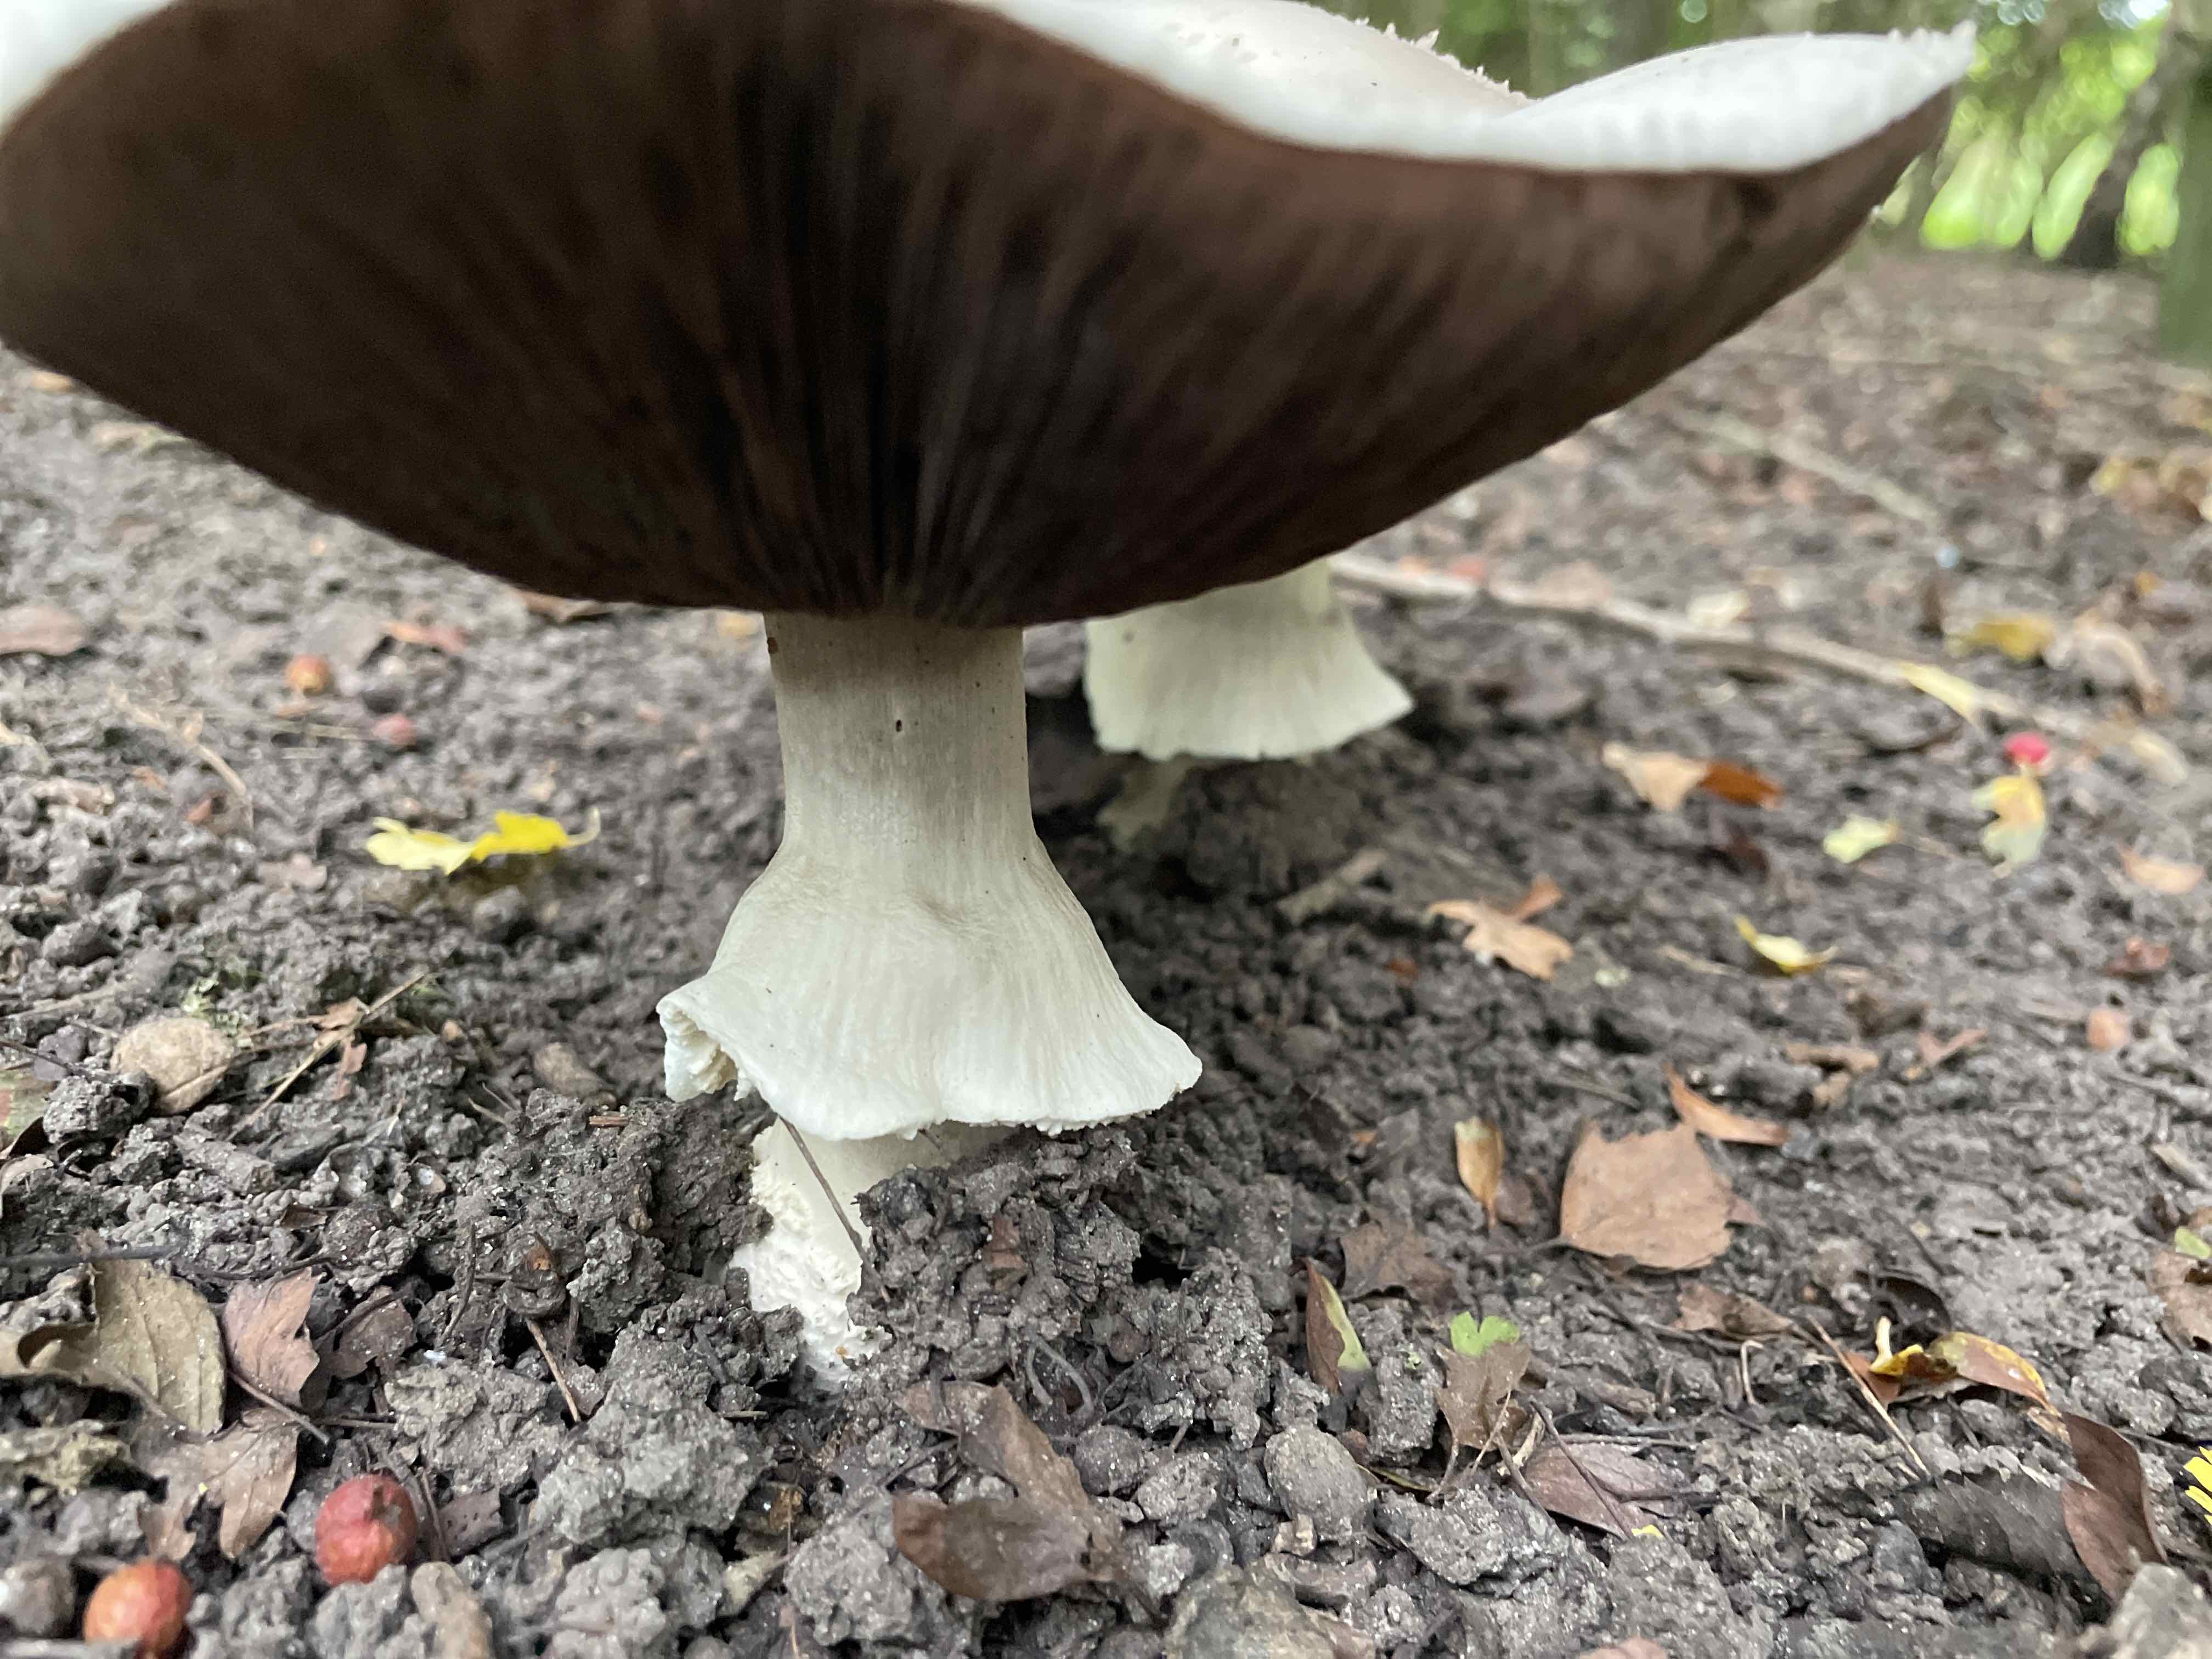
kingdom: Fungi
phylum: Basidiomycota
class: Agaricomycetes
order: Agaricales
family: Agaricaceae
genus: Agaricus
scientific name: Agaricus
